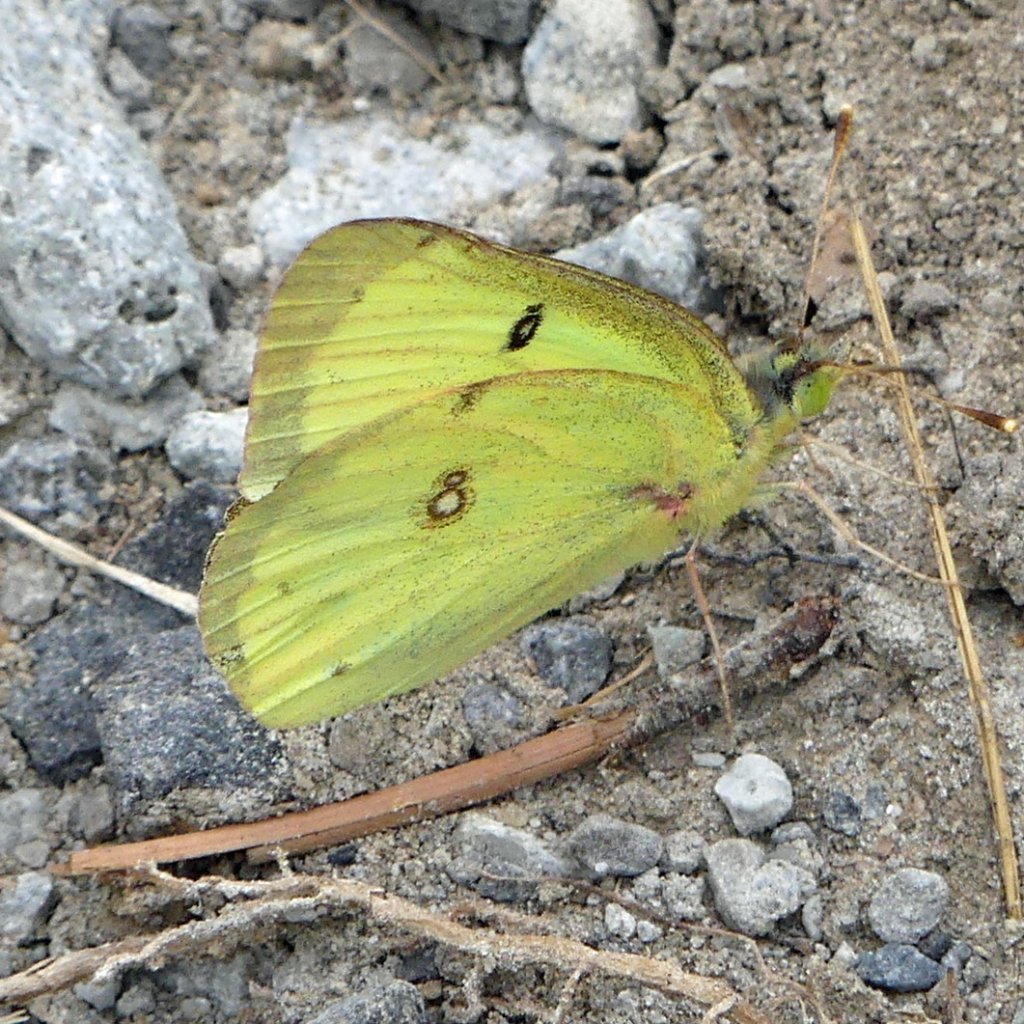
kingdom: Animalia
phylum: Arthropoda
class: Insecta
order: Lepidoptera
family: Pieridae
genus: Colias
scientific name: Colias philodice
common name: Clouded Sulphur
